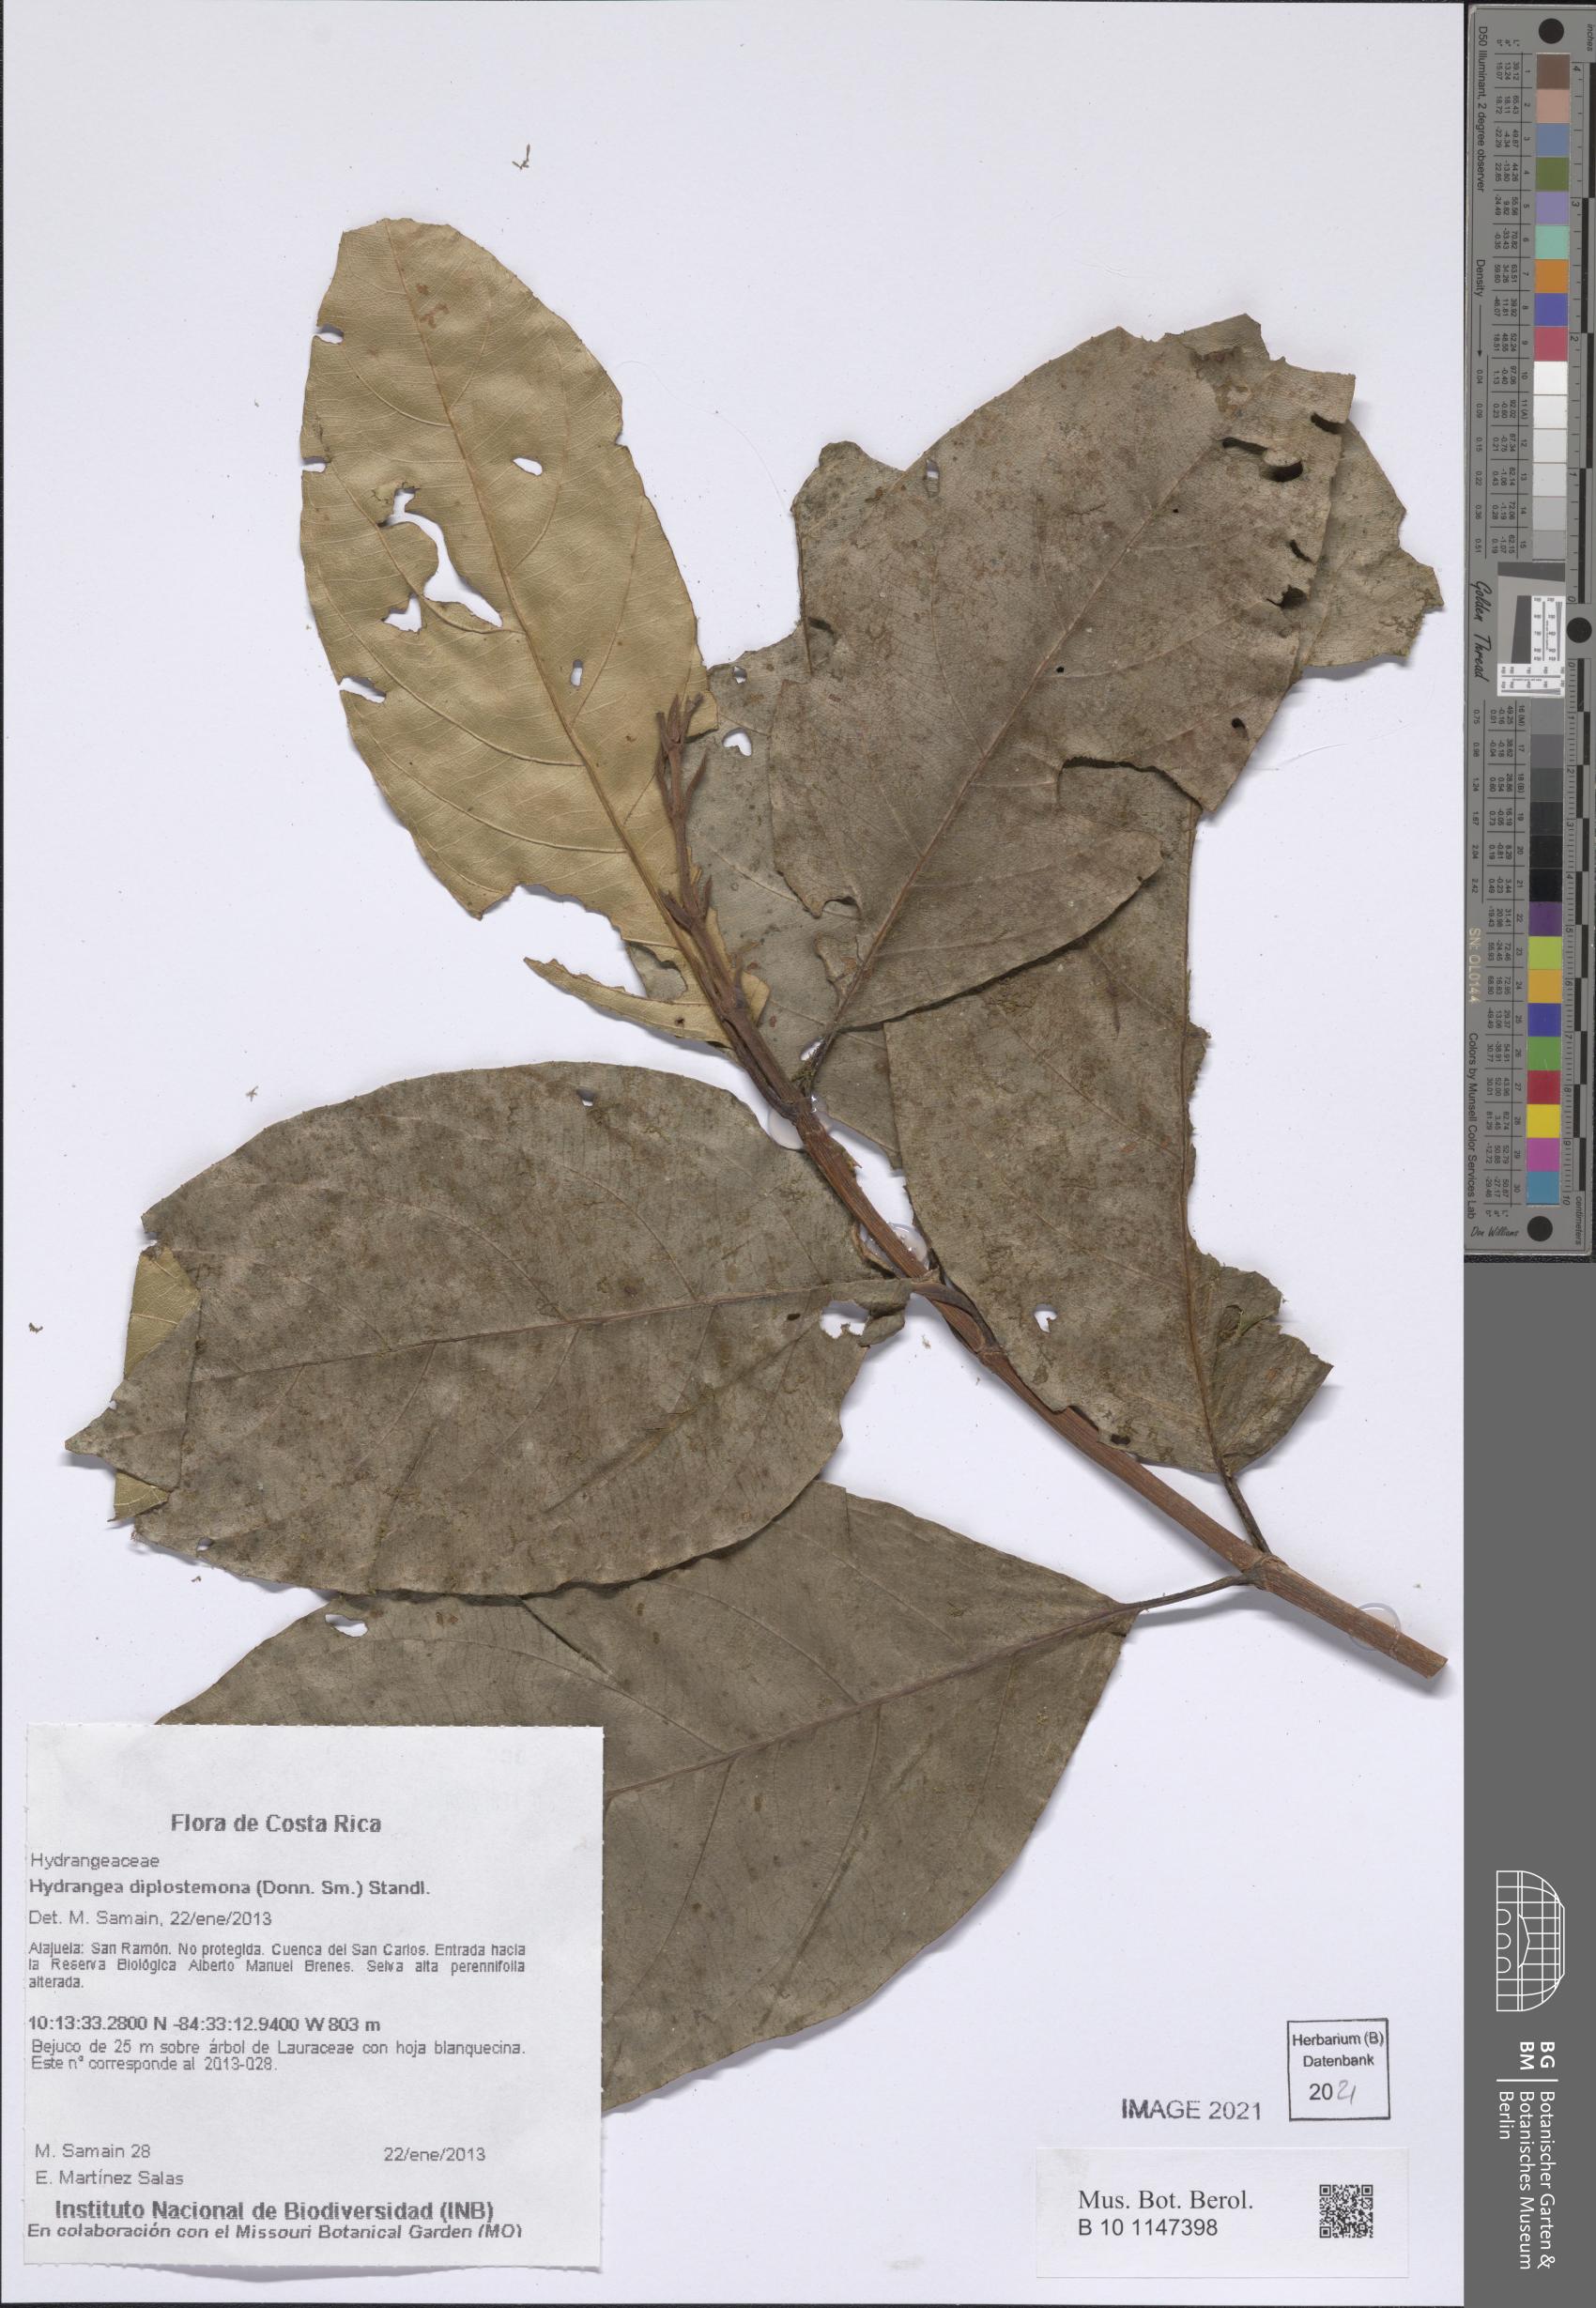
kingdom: Plantae
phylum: Tracheophyta
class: Magnoliopsida
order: Cornales
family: Hydrangeaceae
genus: Hydrangea
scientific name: Hydrangea diplostemona
